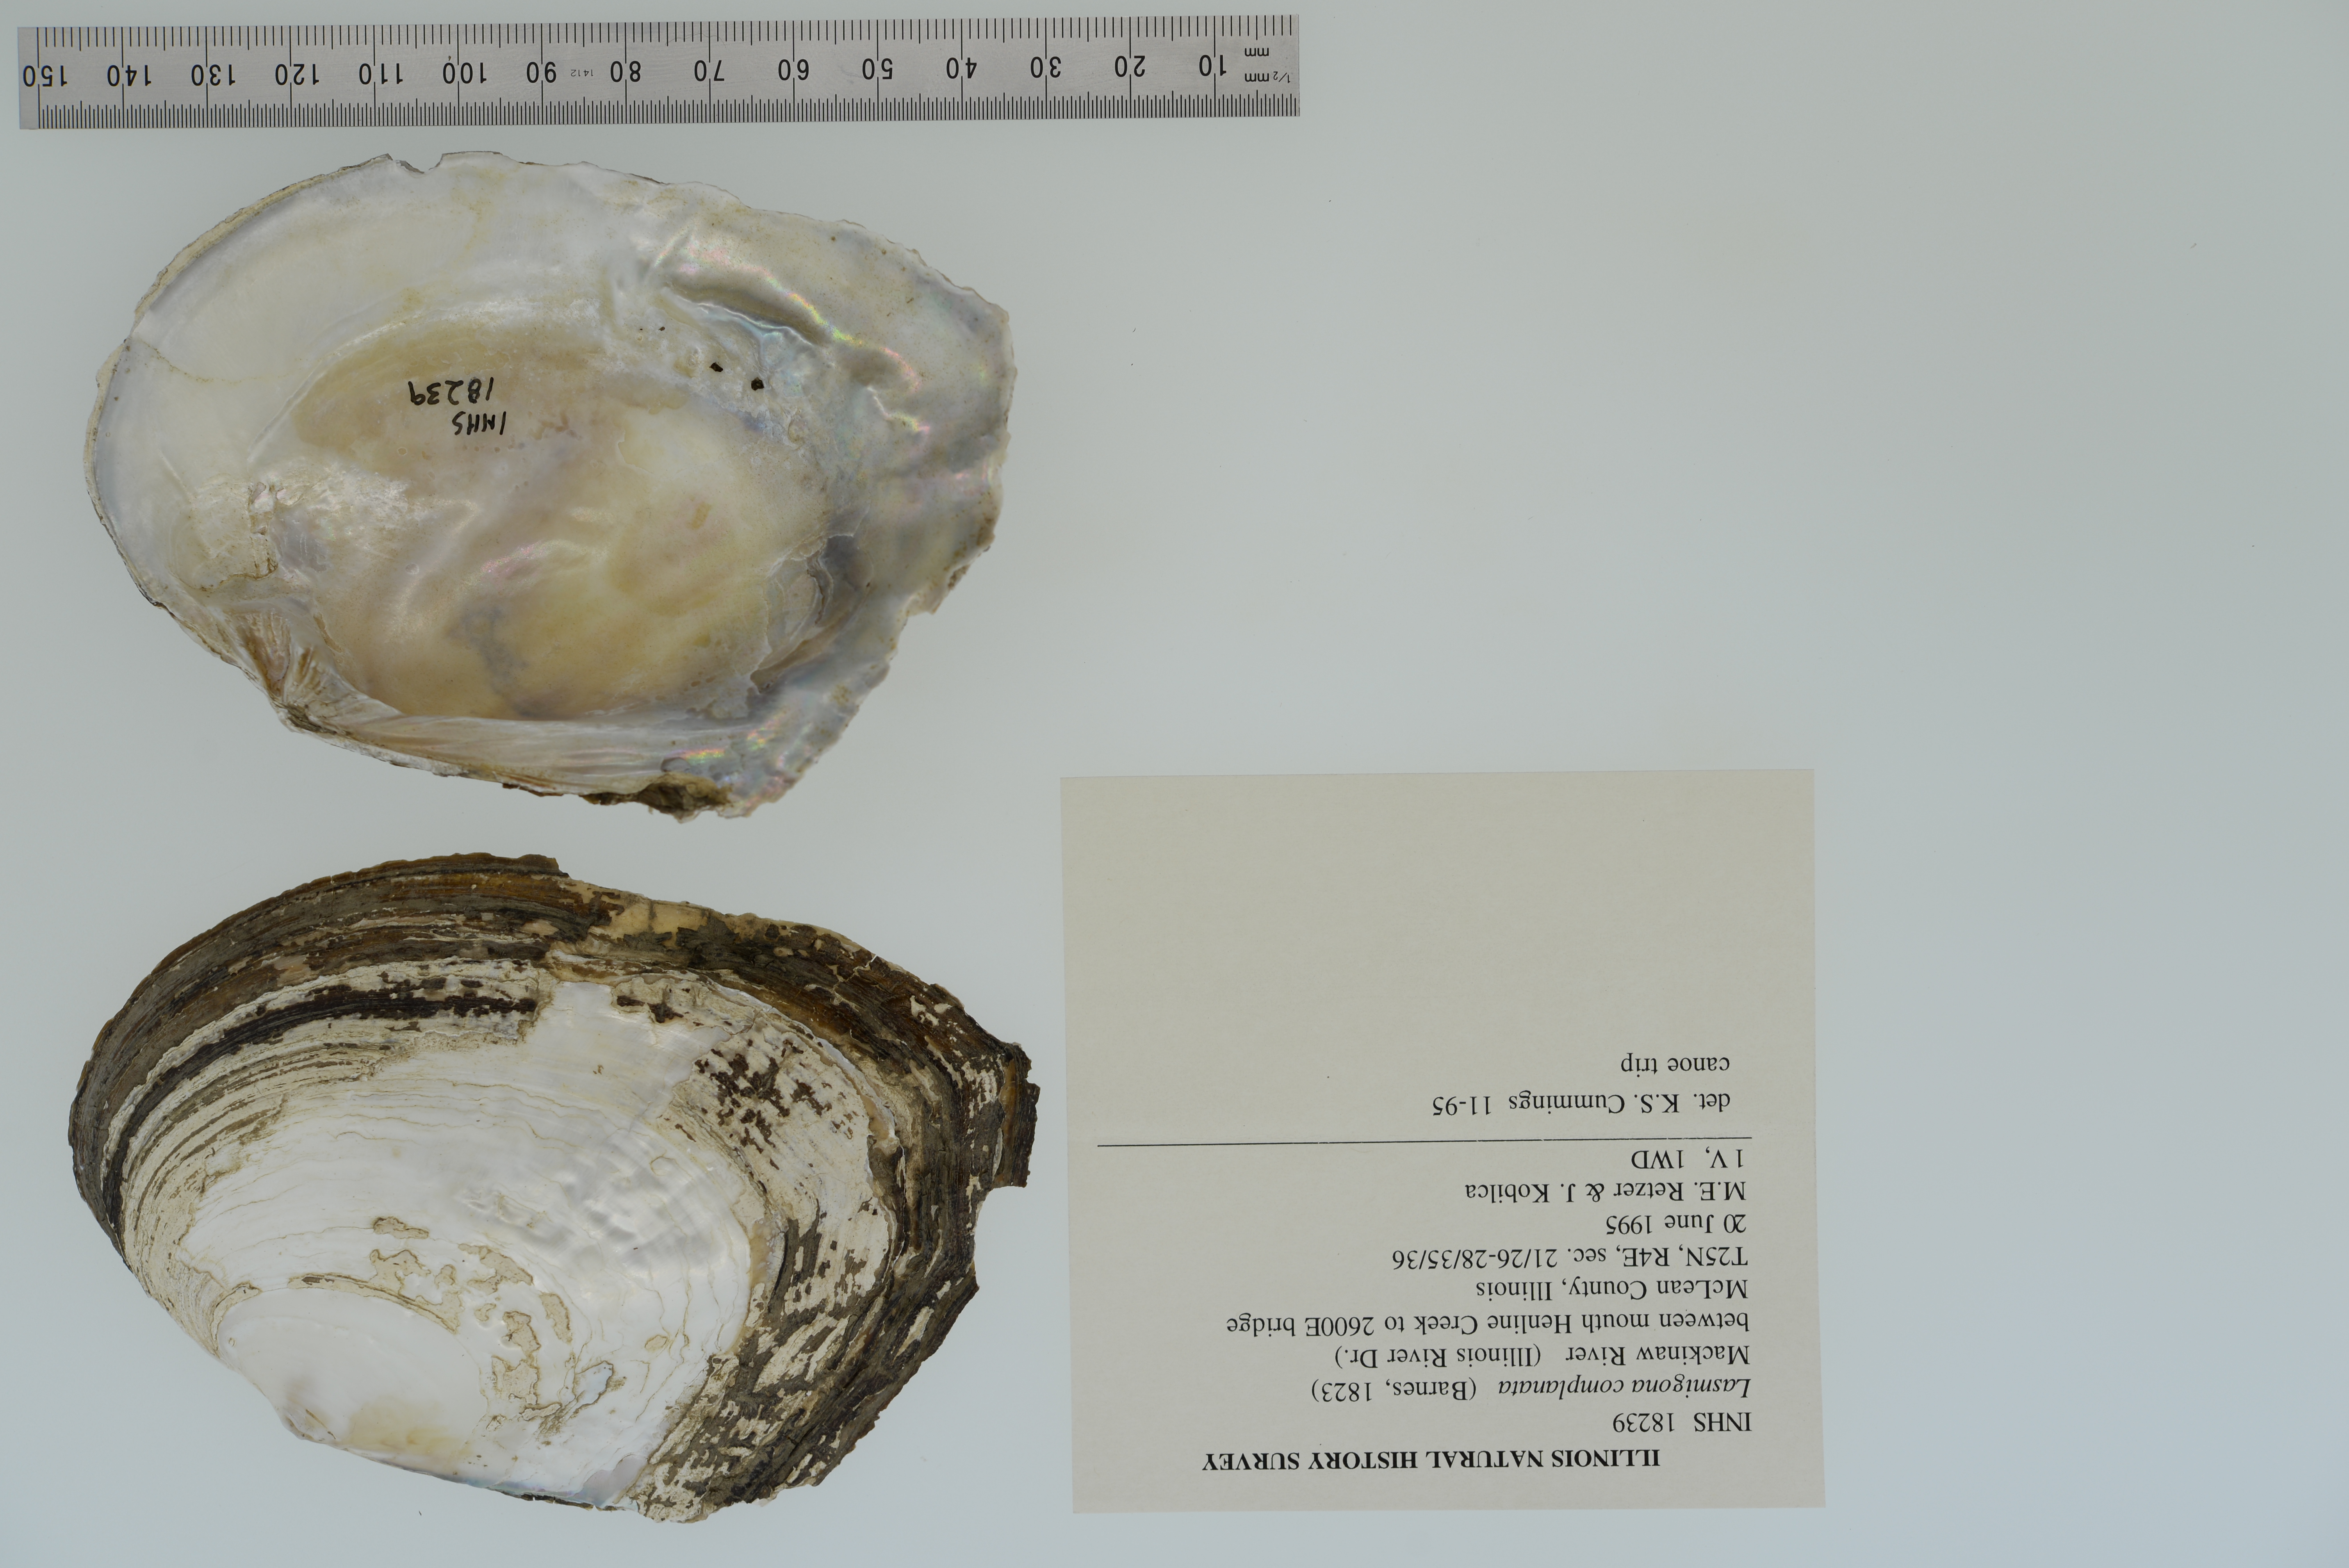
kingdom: Animalia
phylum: Mollusca
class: Bivalvia
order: Unionida
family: Unionidae
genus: Lasmigona
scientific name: Lasmigona complanata
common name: White heelsplitter
